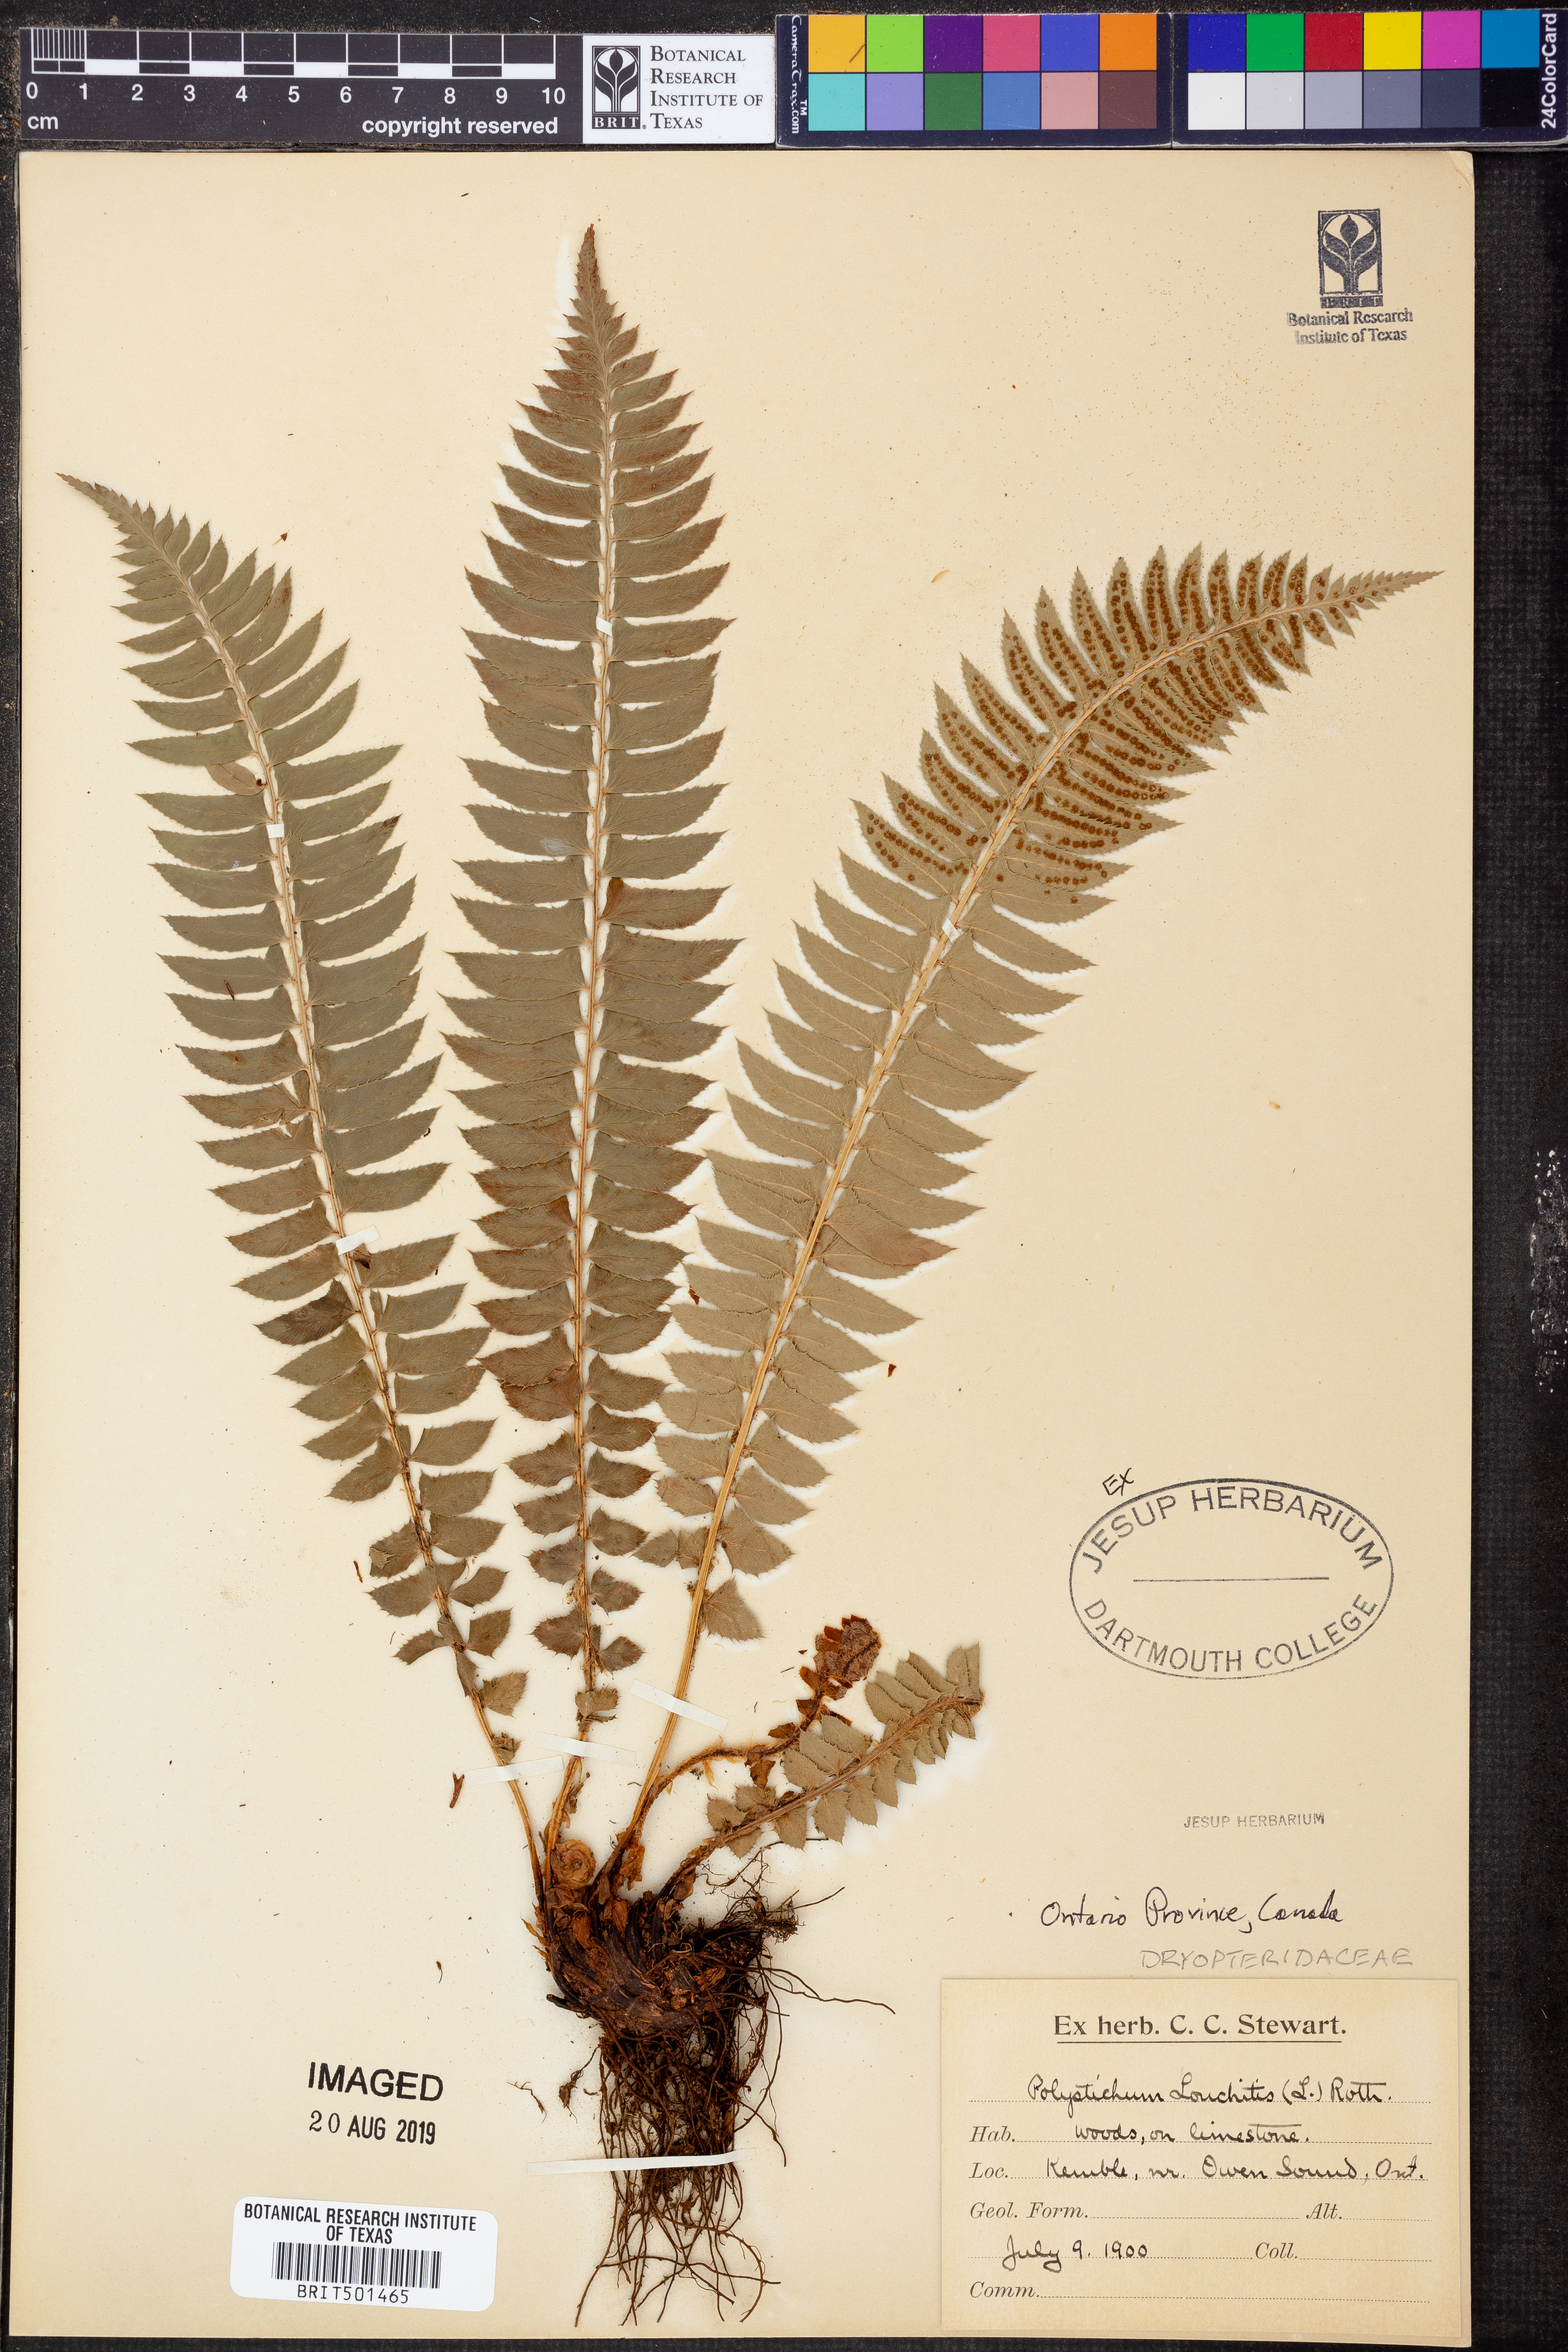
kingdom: Plantae
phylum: Tracheophyta
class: Polypodiopsida
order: Polypodiales
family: Dryopteridaceae
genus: Polystichum
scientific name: Polystichum lonchitis
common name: Holly fern
